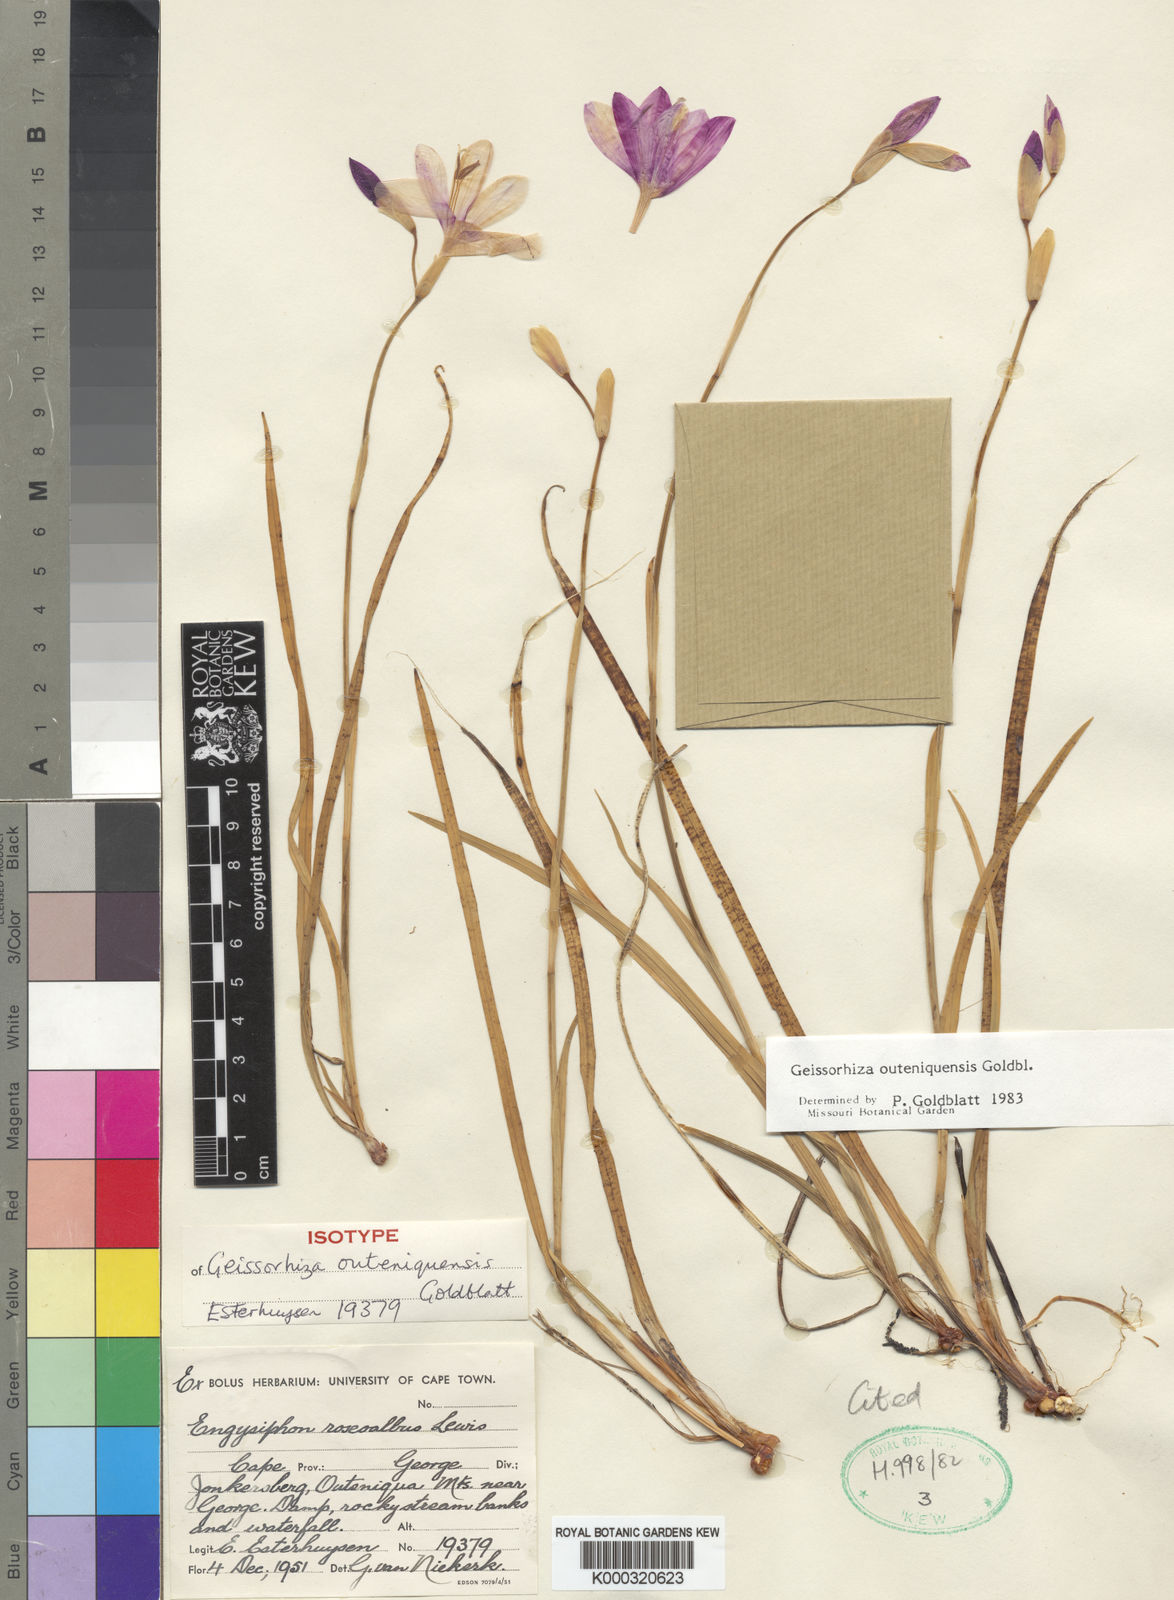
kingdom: Plantae
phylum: Tracheophyta
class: Liliopsida
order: Asparagales
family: Iridaceae
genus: Geissorhiza
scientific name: Geissorhiza outeniquensis
